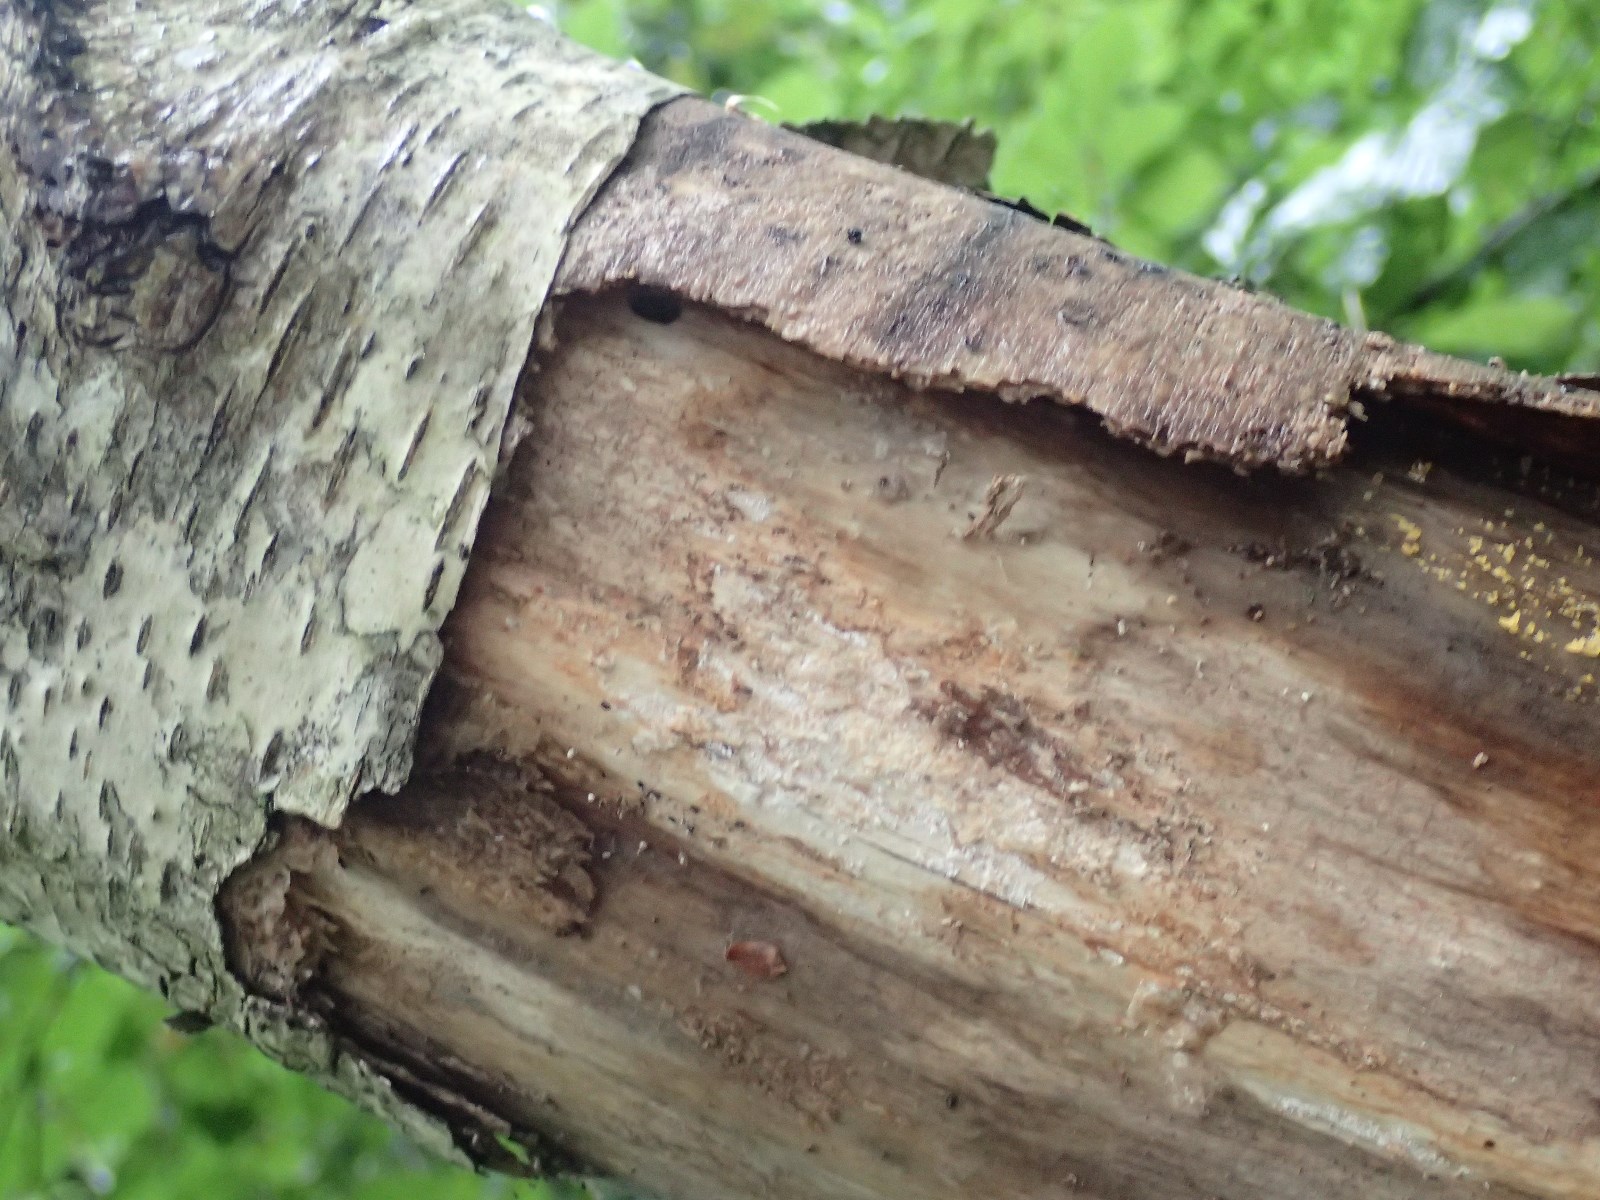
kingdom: Fungi
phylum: Basidiomycota
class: Dacrymycetes
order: Dacrymycetales
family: Dacrymycetaceae
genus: Calocera
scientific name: Calocera cornea
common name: liden guldgaffel
